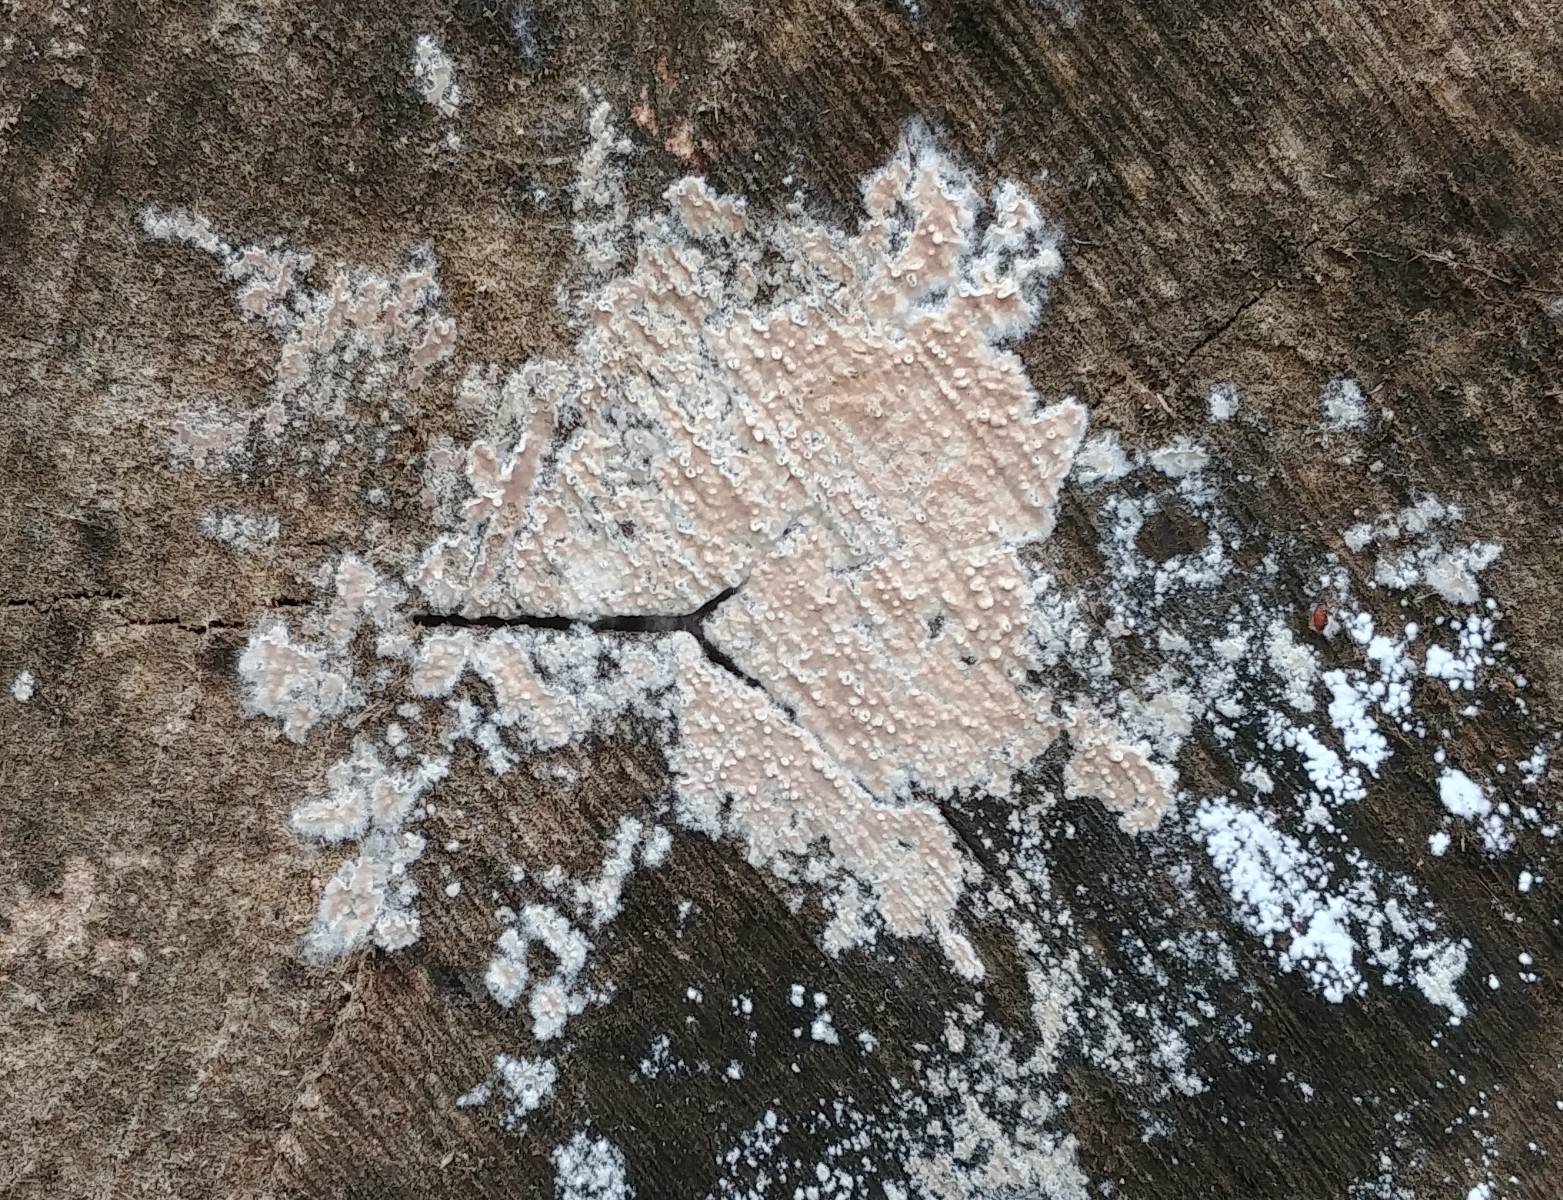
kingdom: Fungi
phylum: Basidiomycota
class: Agaricomycetes
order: Agaricales
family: Physalacriaceae
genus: Cylindrobasidium
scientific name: Cylindrobasidium evolvens
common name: sprækkehinde
